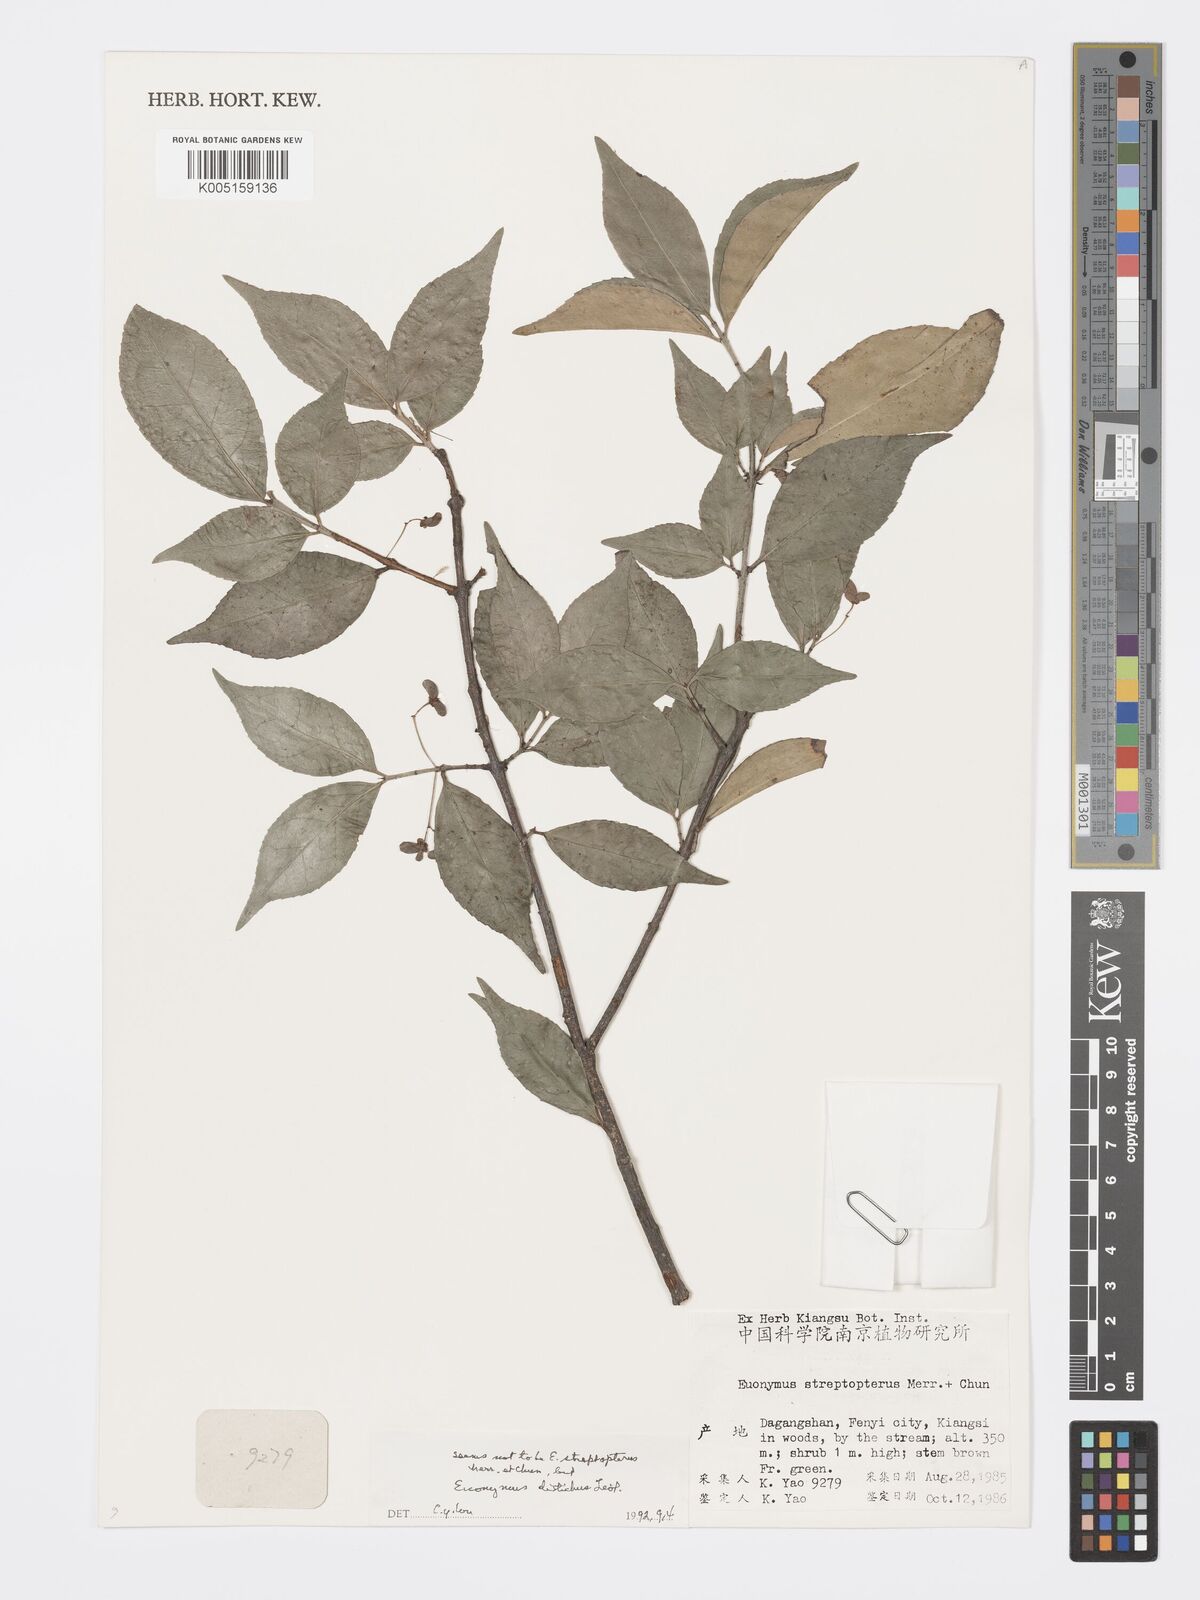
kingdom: Plantae
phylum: Tracheophyta
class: Magnoliopsida
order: Celastrales
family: Celastraceae
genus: Euonymus
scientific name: Euonymus distichus
